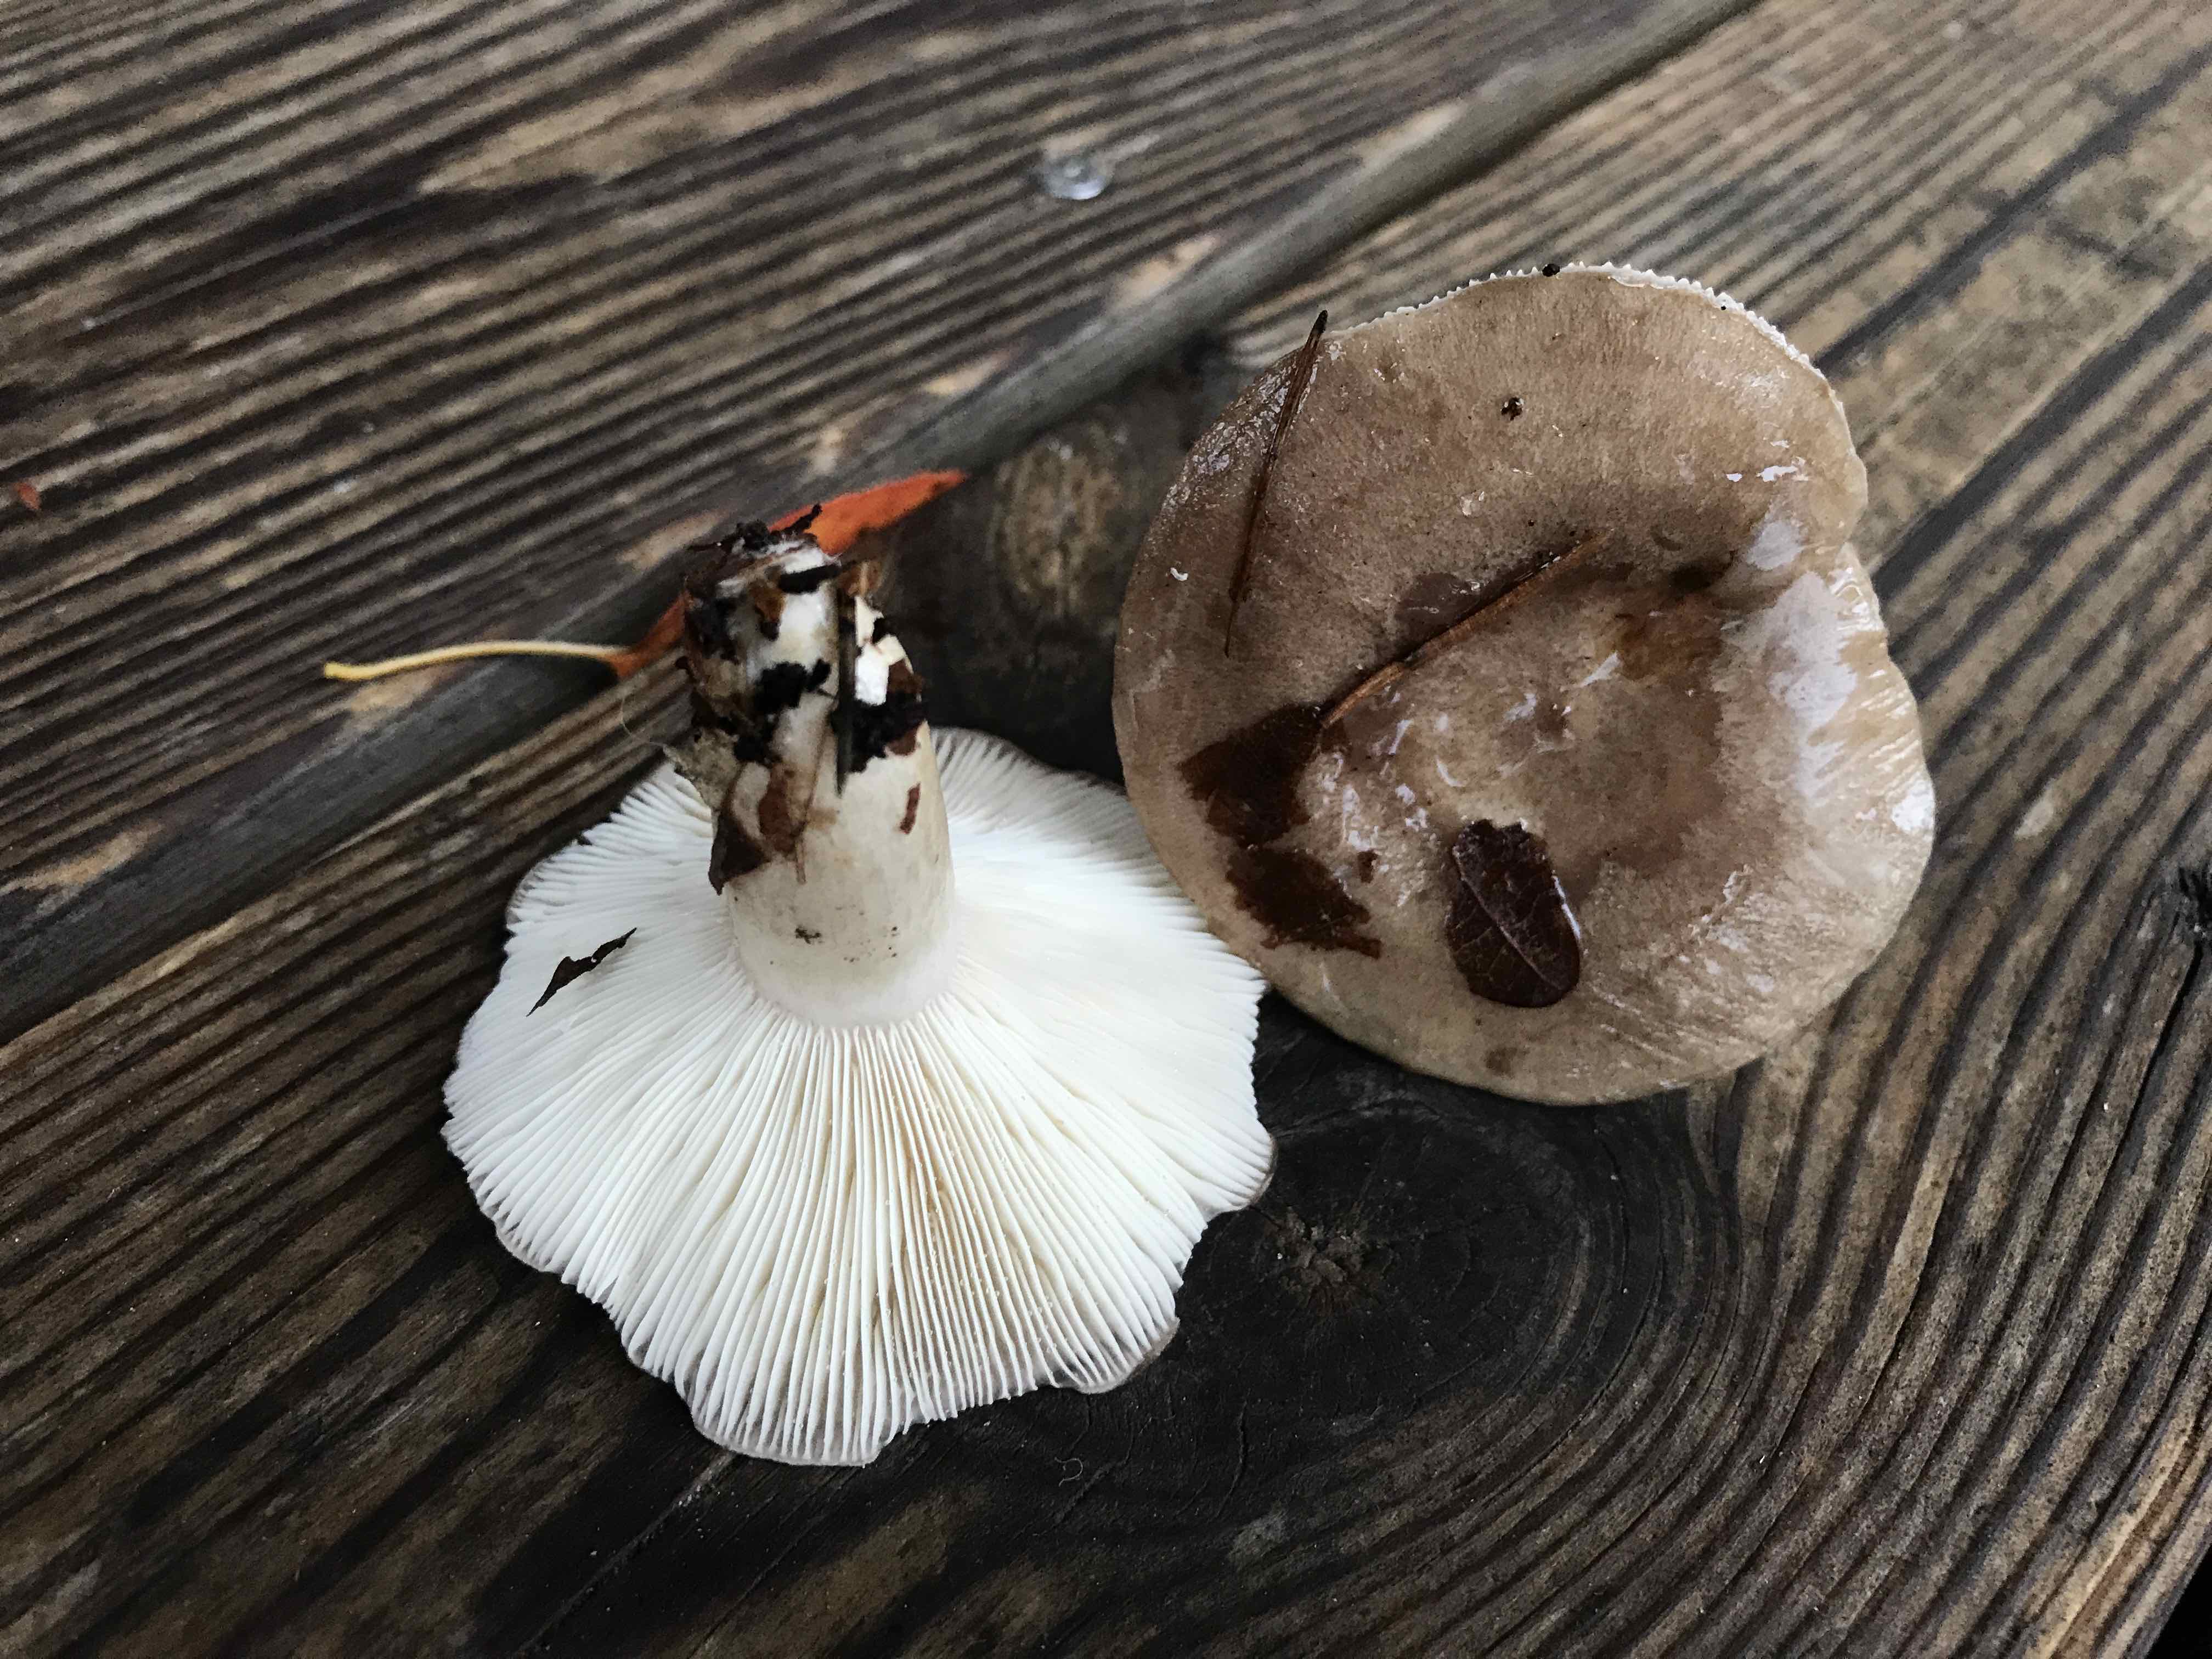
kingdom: Fungi
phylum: Basidiomycota
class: Agaricomycetes
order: Russulales
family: Russulaceae
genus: Lactarius
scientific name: Lactarius blennius
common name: dråbeplettet mælkehat
